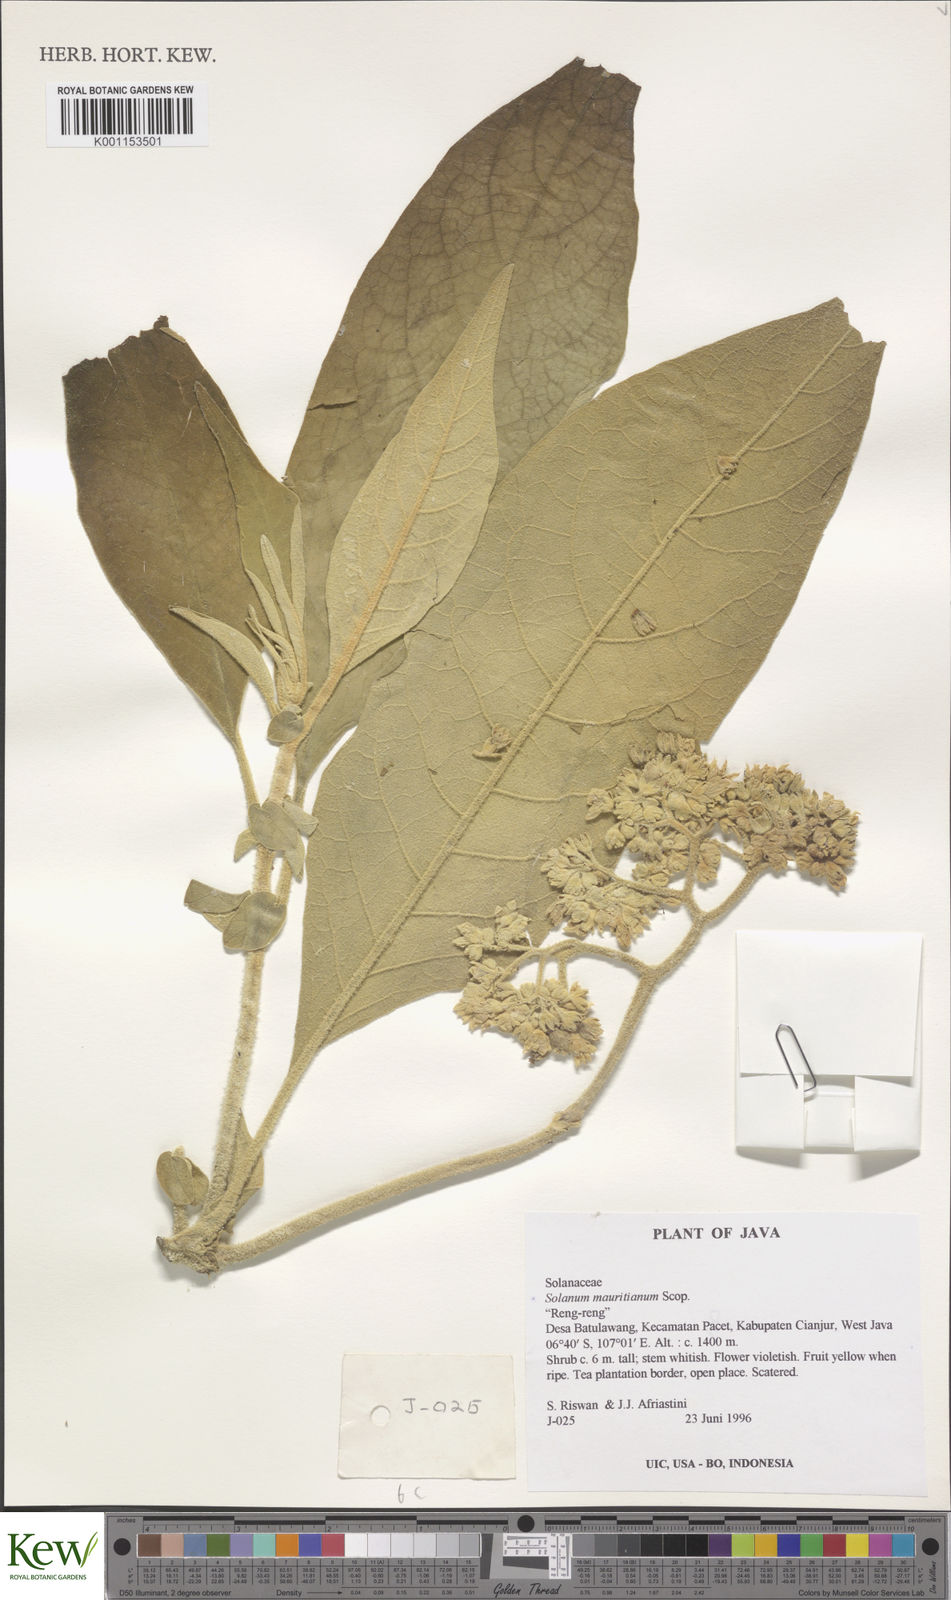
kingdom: Plantae
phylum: Tracheophyta
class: Magnoliopsida
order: Solanales
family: Solanaceae
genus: Solanum
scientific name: Solanum mauritianum
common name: Earleaf nightshade
